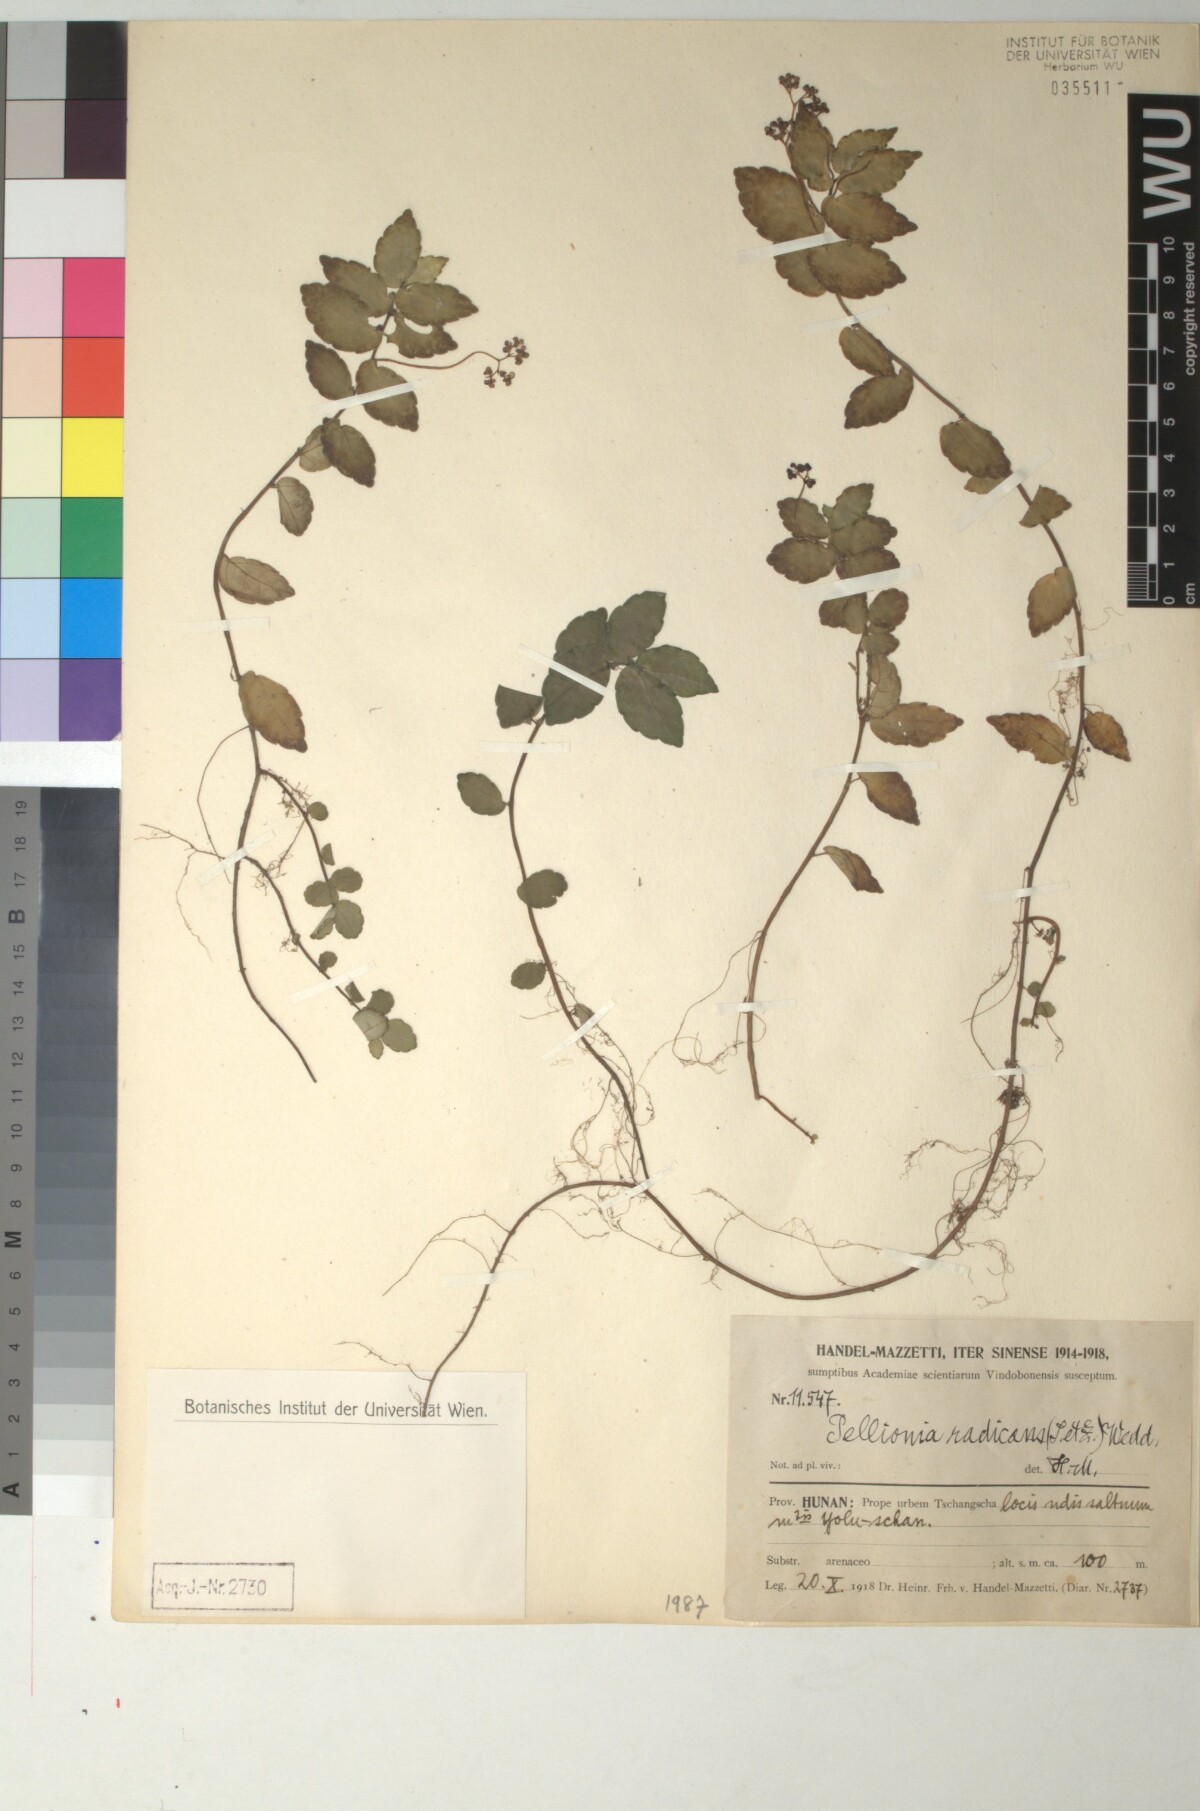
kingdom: Plantae
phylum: Tracheophyta
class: Magnoliopsida
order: Rosales
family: Urticaceae
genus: Elatostema
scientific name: Elatostema radicans
